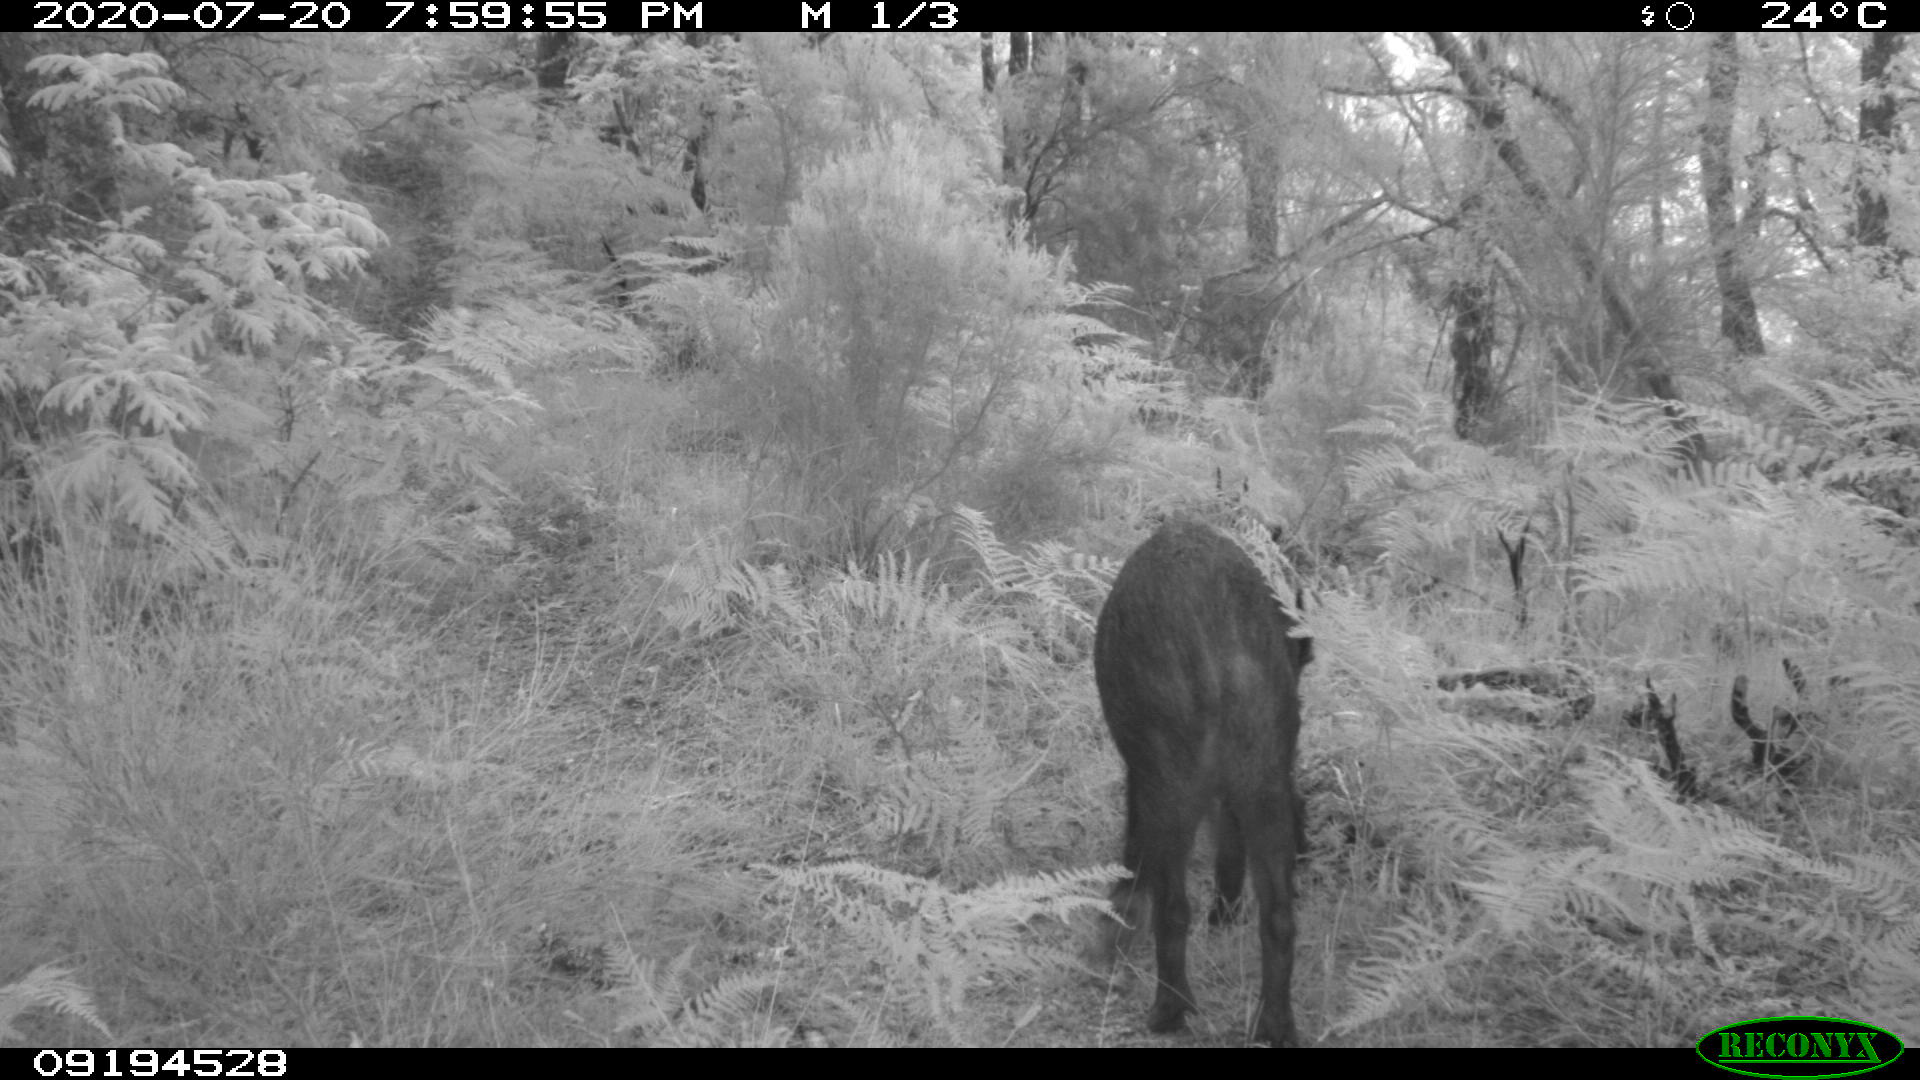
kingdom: Animalia
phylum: Chordata
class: Mammalia
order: Artiodactyla
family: Suidae
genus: Sus
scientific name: Sus scrofa
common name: Wild boar
